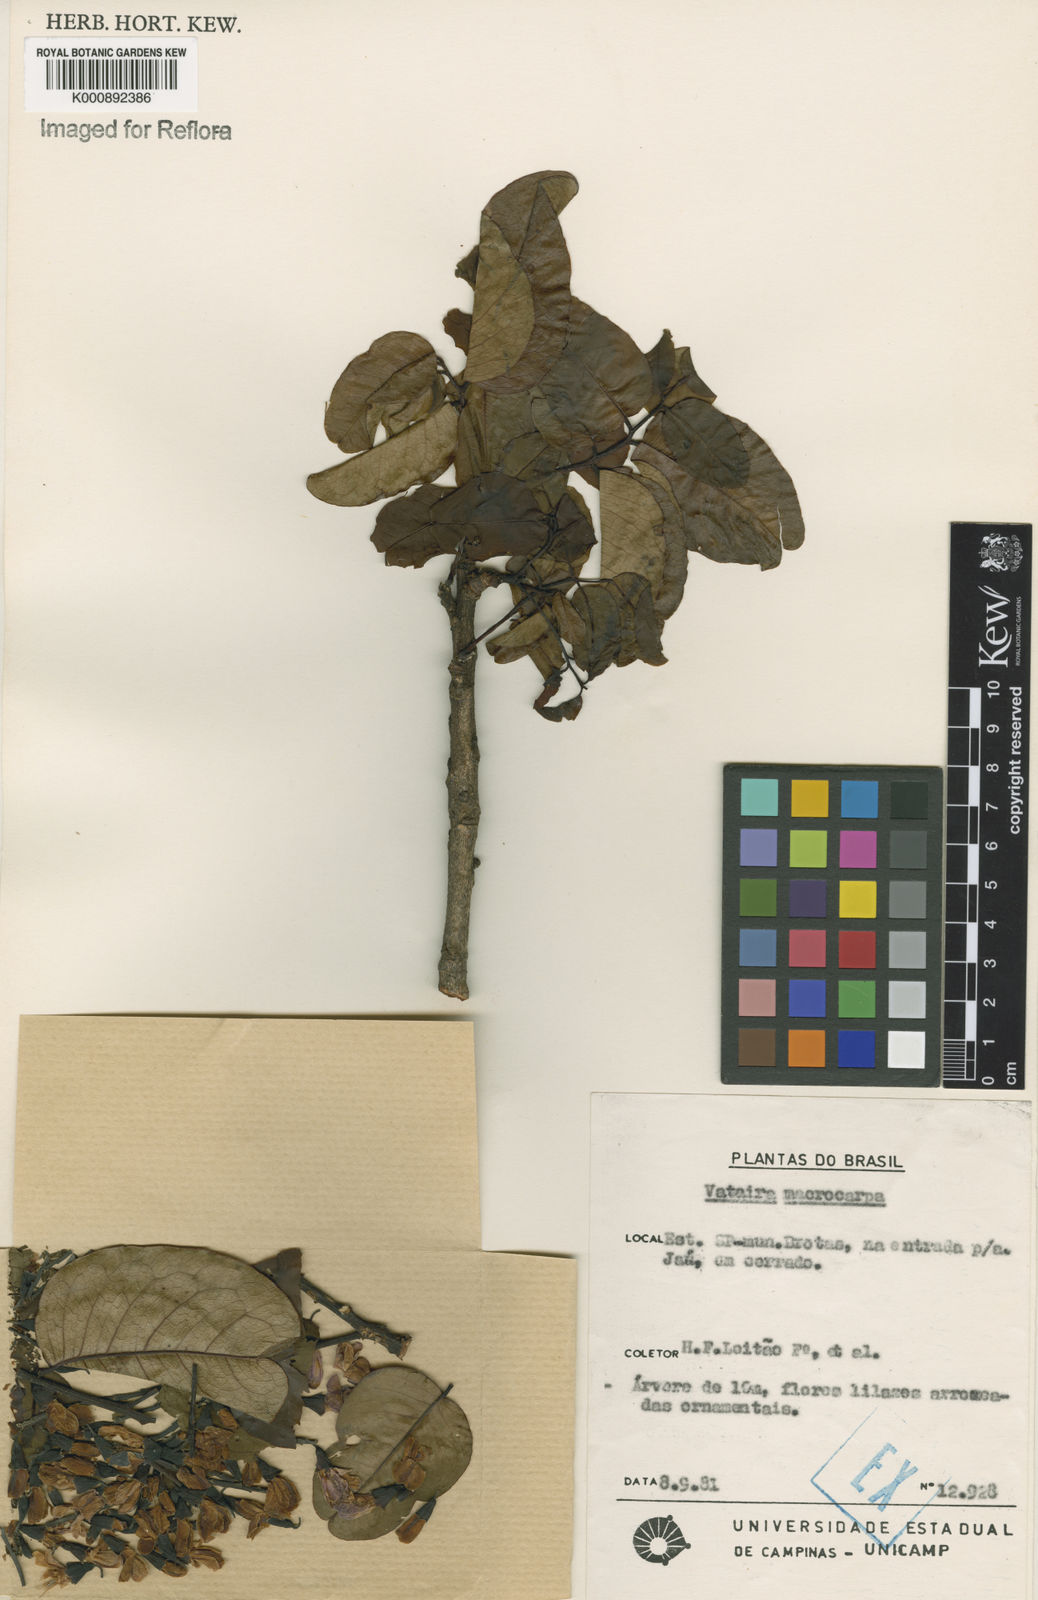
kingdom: Plantae
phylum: Tracheophyta
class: Magnoliopsida
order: Fabales
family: Fabaceae
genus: Vatairea
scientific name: Vatairea macrocarpa
